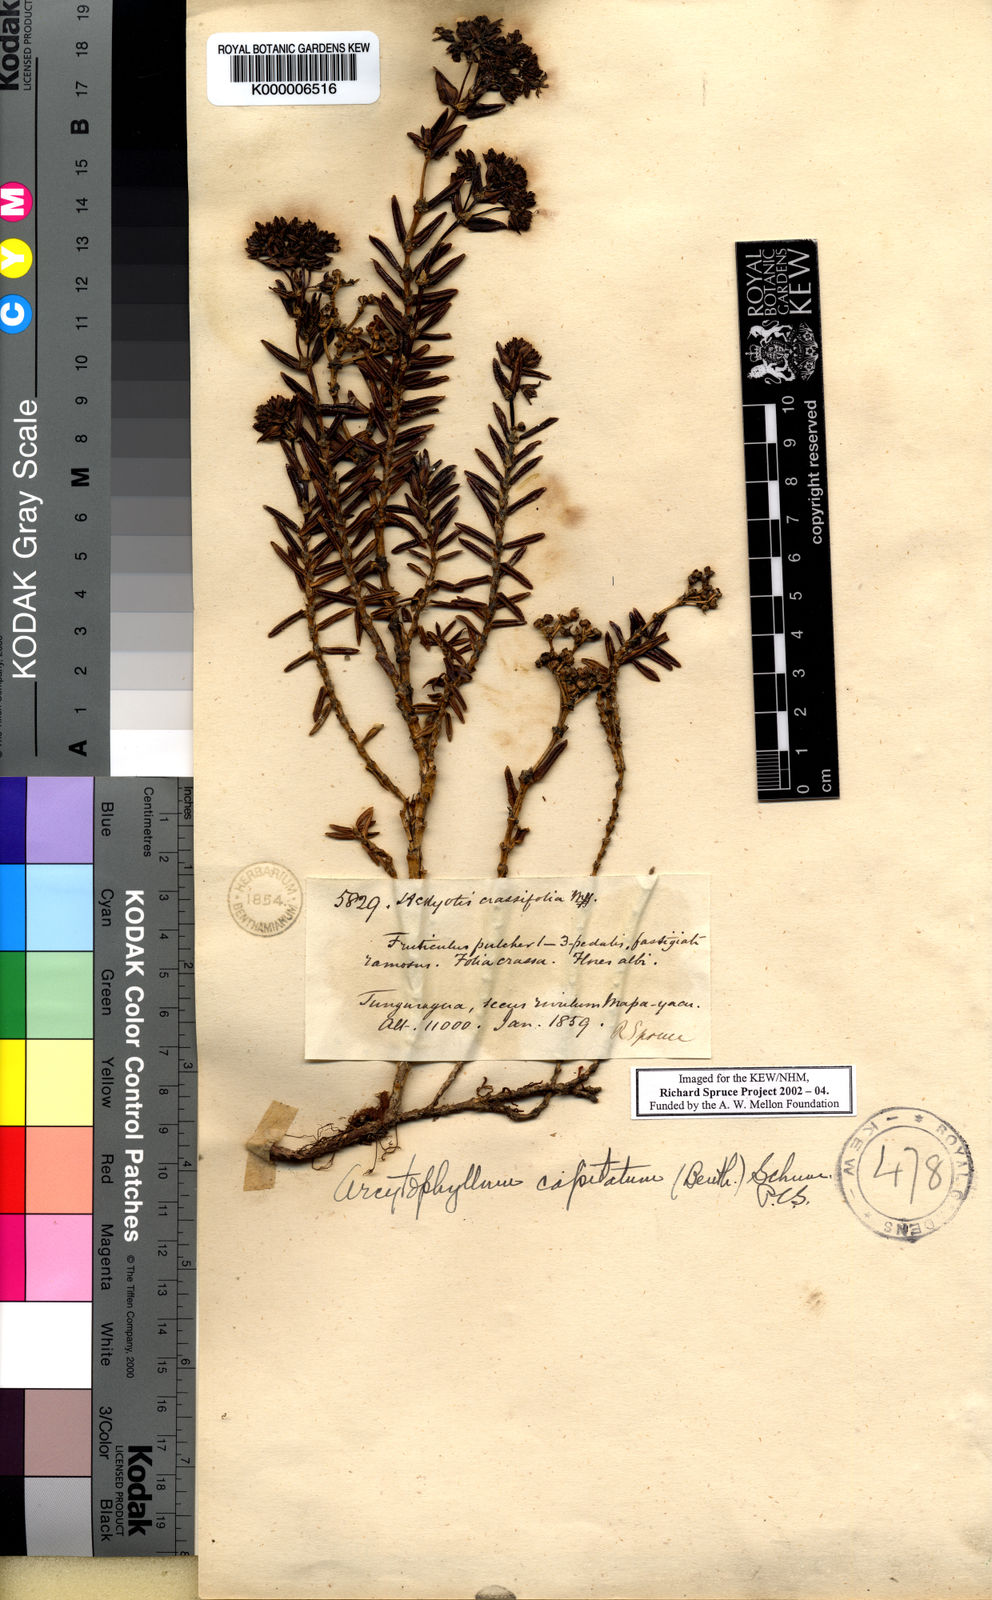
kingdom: Plantae
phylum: Tracheophyta
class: Magnoliopsida
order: Gentianales
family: Rubiaceae
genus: Arcytophyllum
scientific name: Arcytophyllum capitatum
